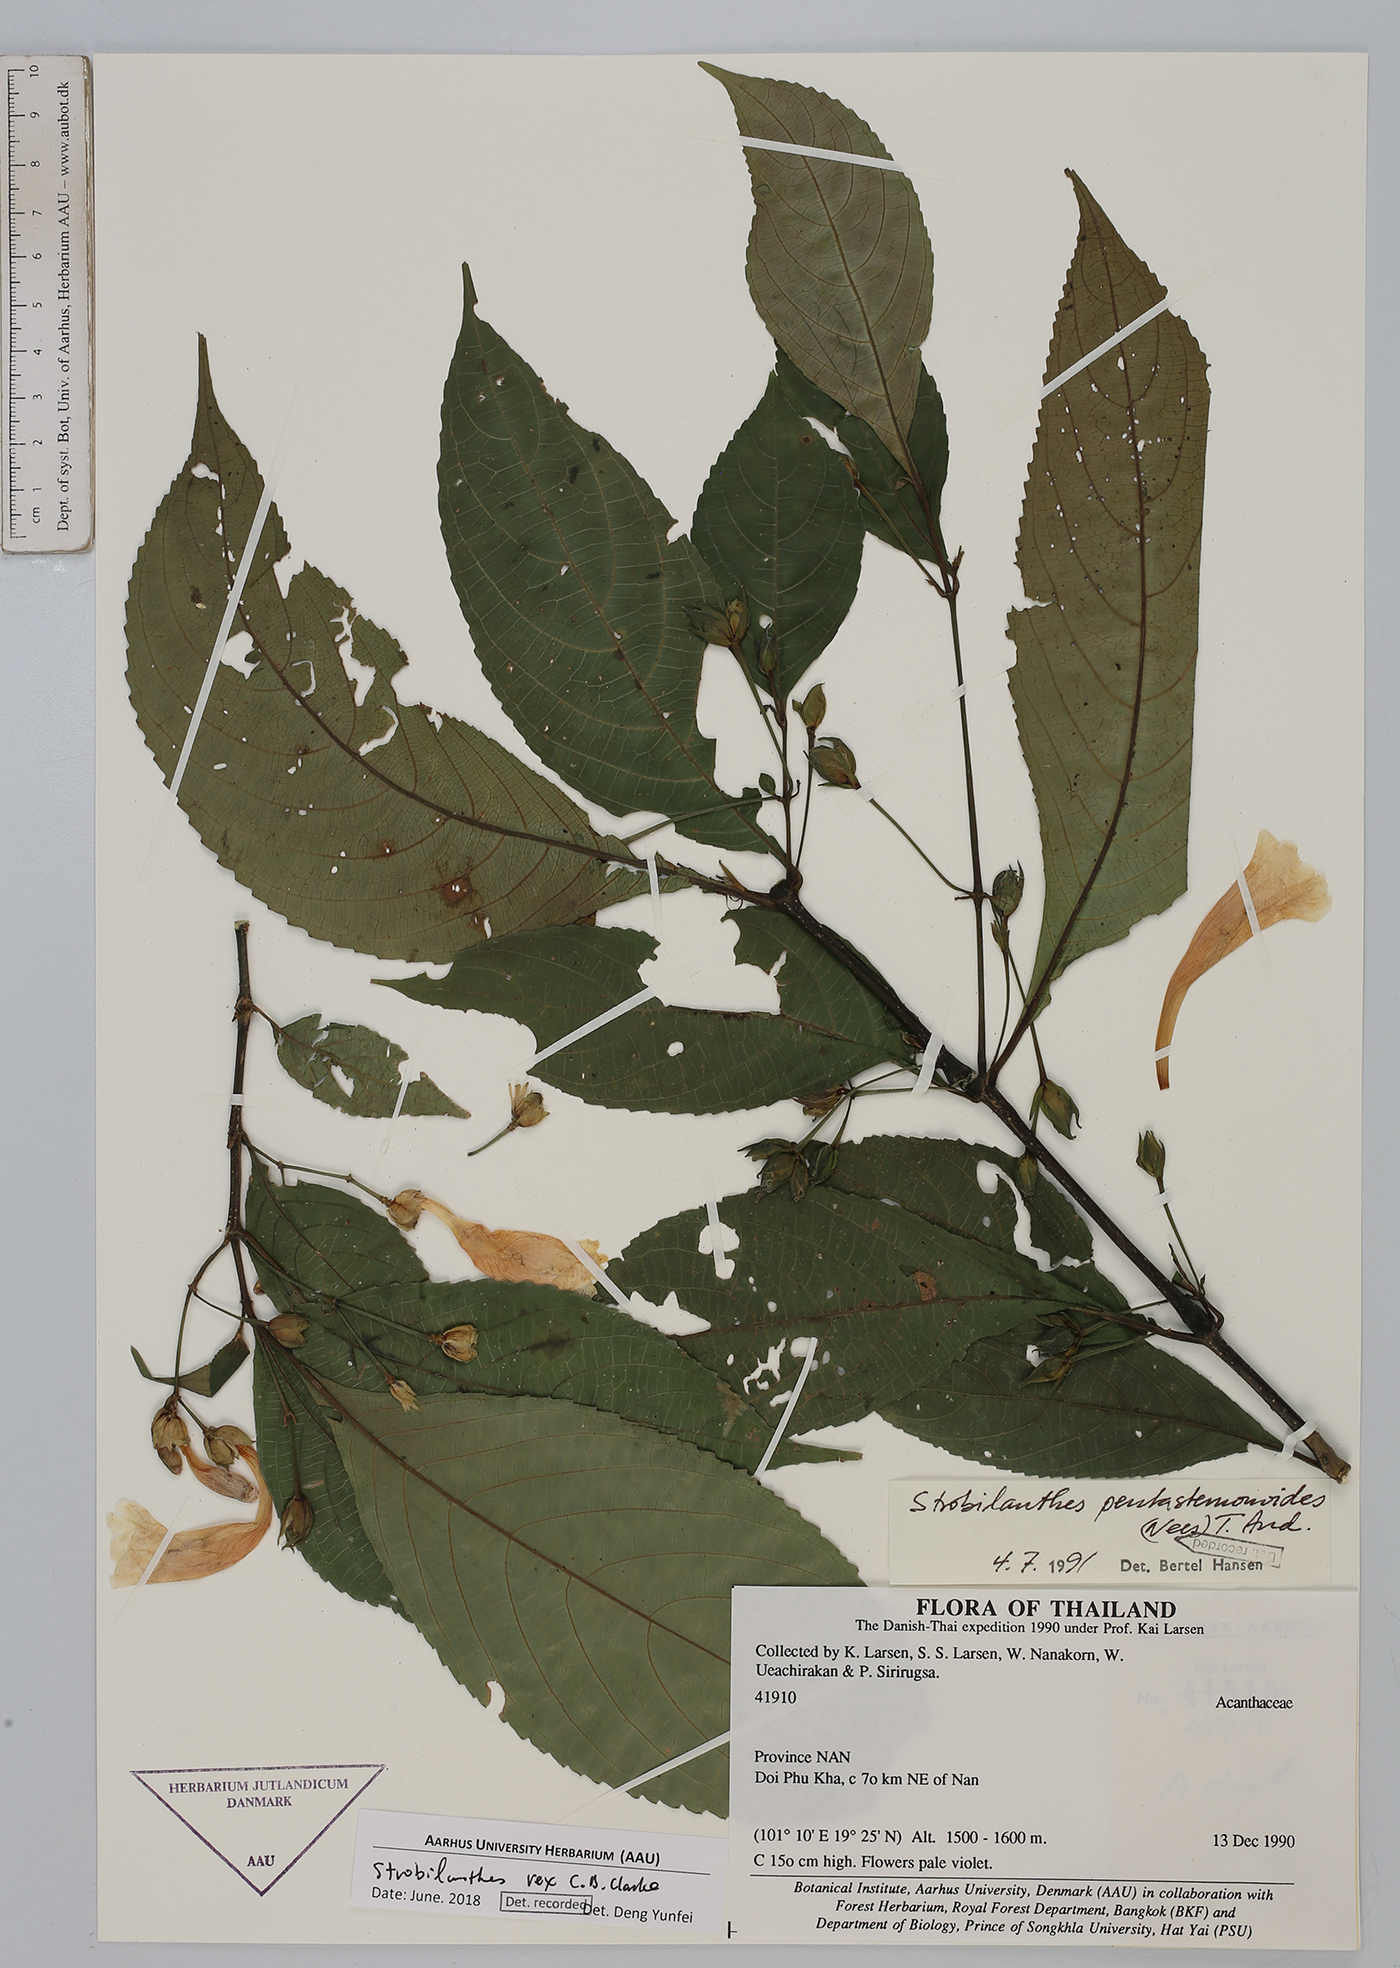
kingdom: Plantae
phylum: Tracheophyta
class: Magnoliopsida
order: Lamiales
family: Acanthaceae
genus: Strobilanthes
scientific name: Strobilanthes dimorphotricha
